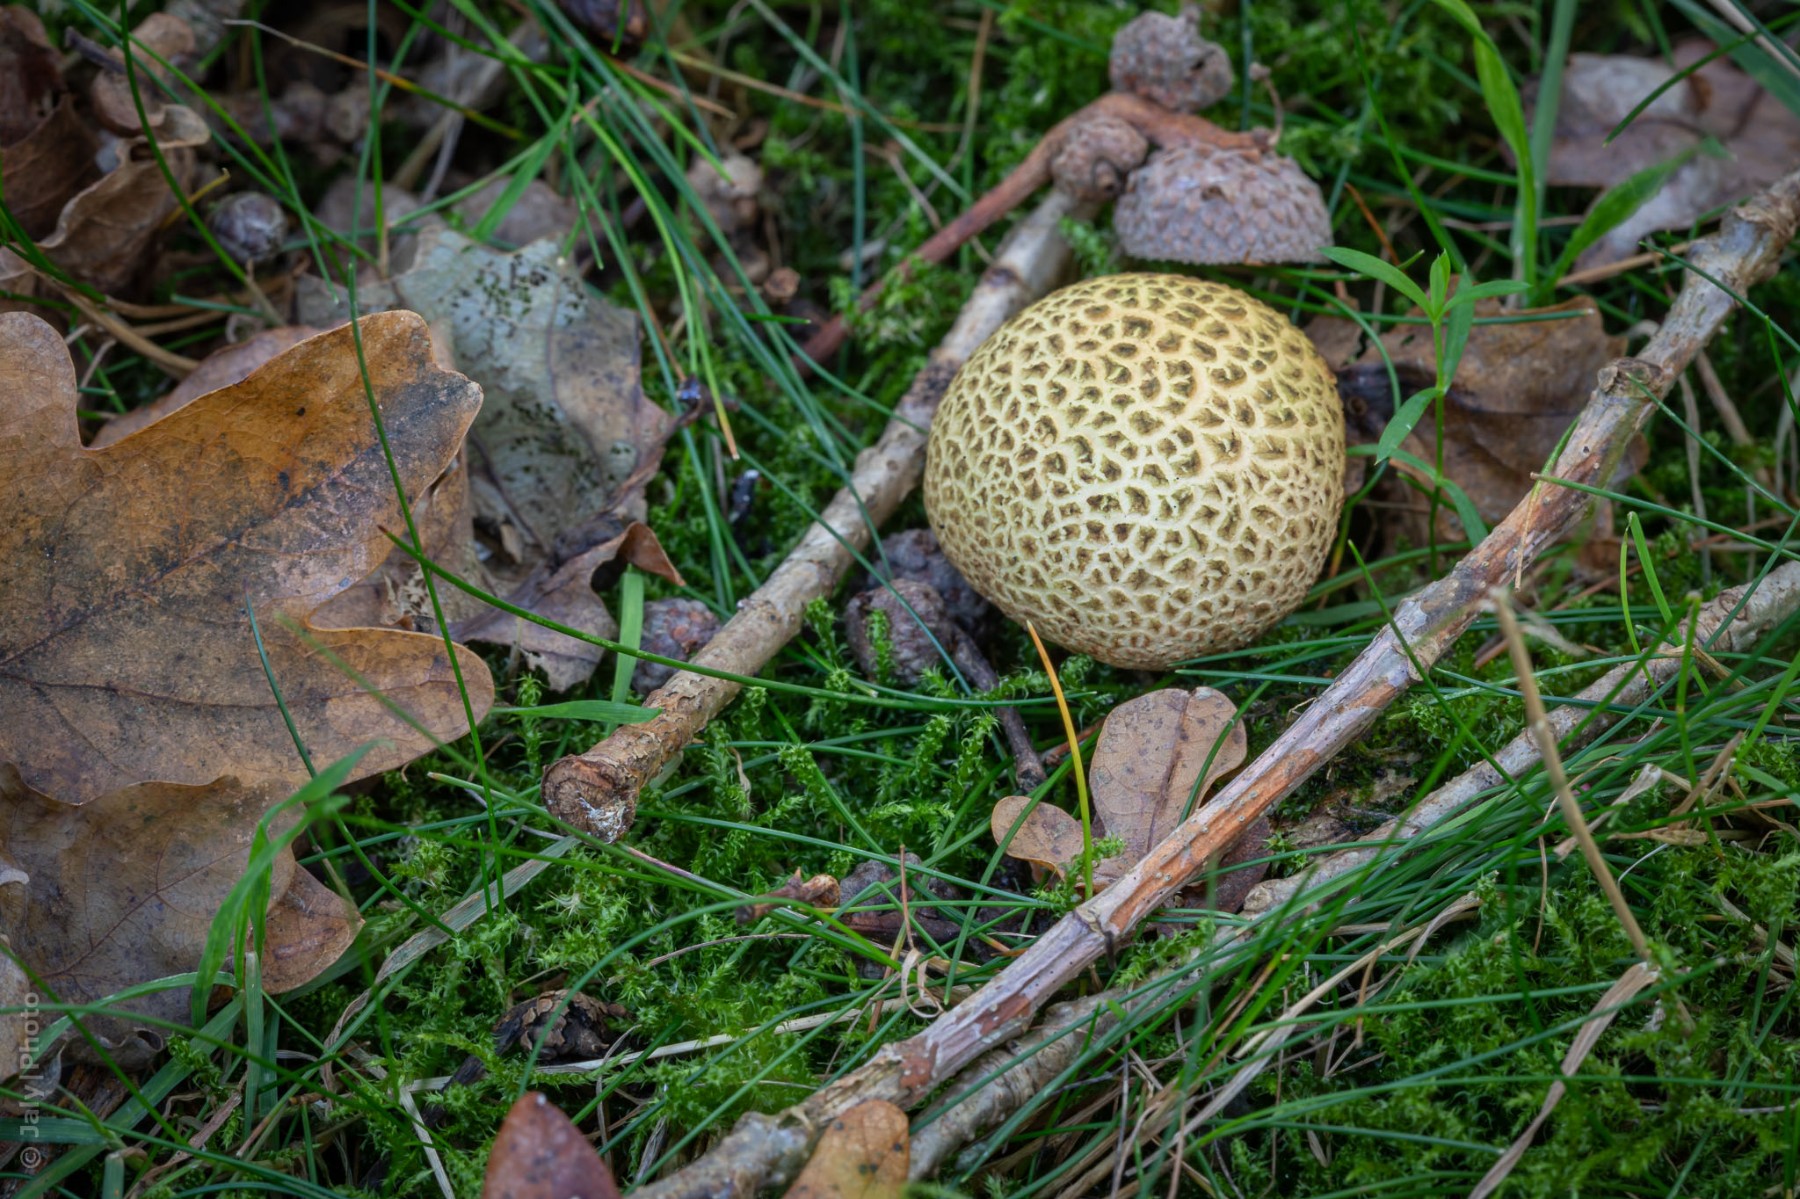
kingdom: Fungi
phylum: Basidiomycota
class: Agaricomycetes
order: Boletales
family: Sclerodermataceae
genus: Scleroderma
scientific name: Scleroderma citrinum
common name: almindelig bruskbold
